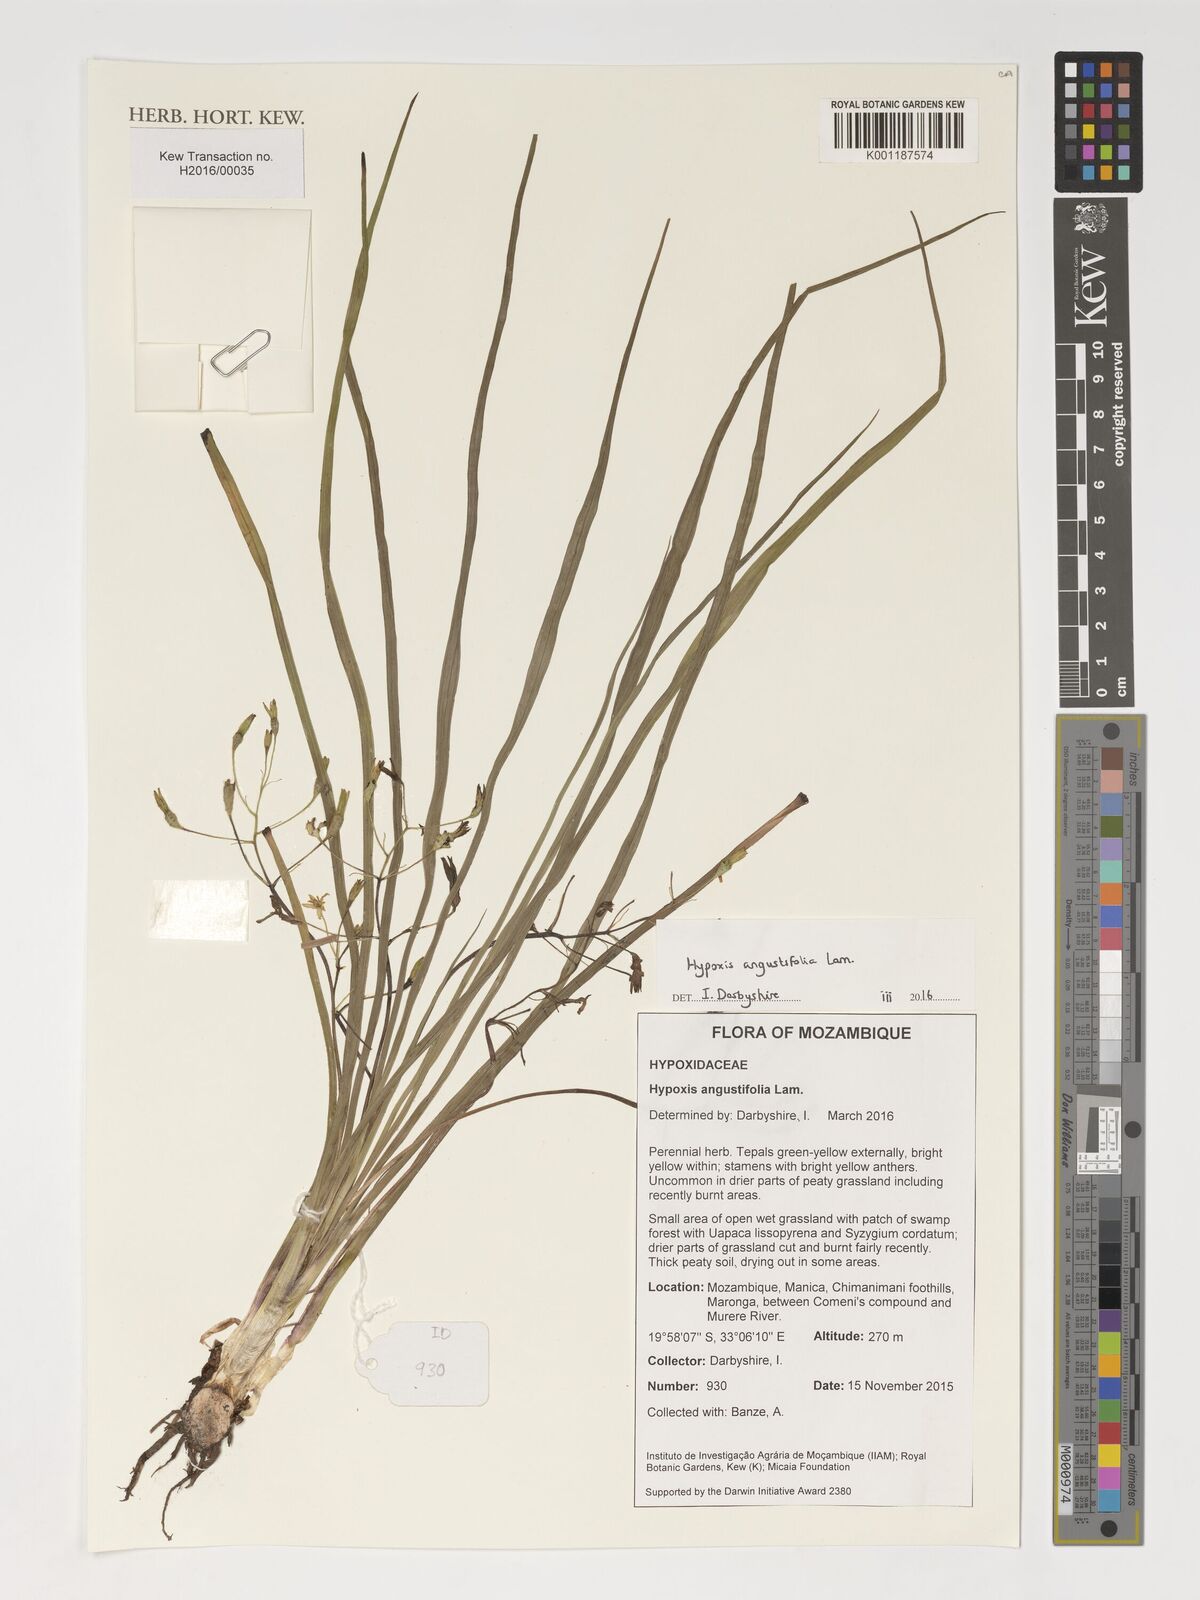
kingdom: Plantae
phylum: Tracheophyta
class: Liliopsida
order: Asparagales
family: Hypoxidaceae
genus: Hypoxis
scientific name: Hypoxis angustifolia
